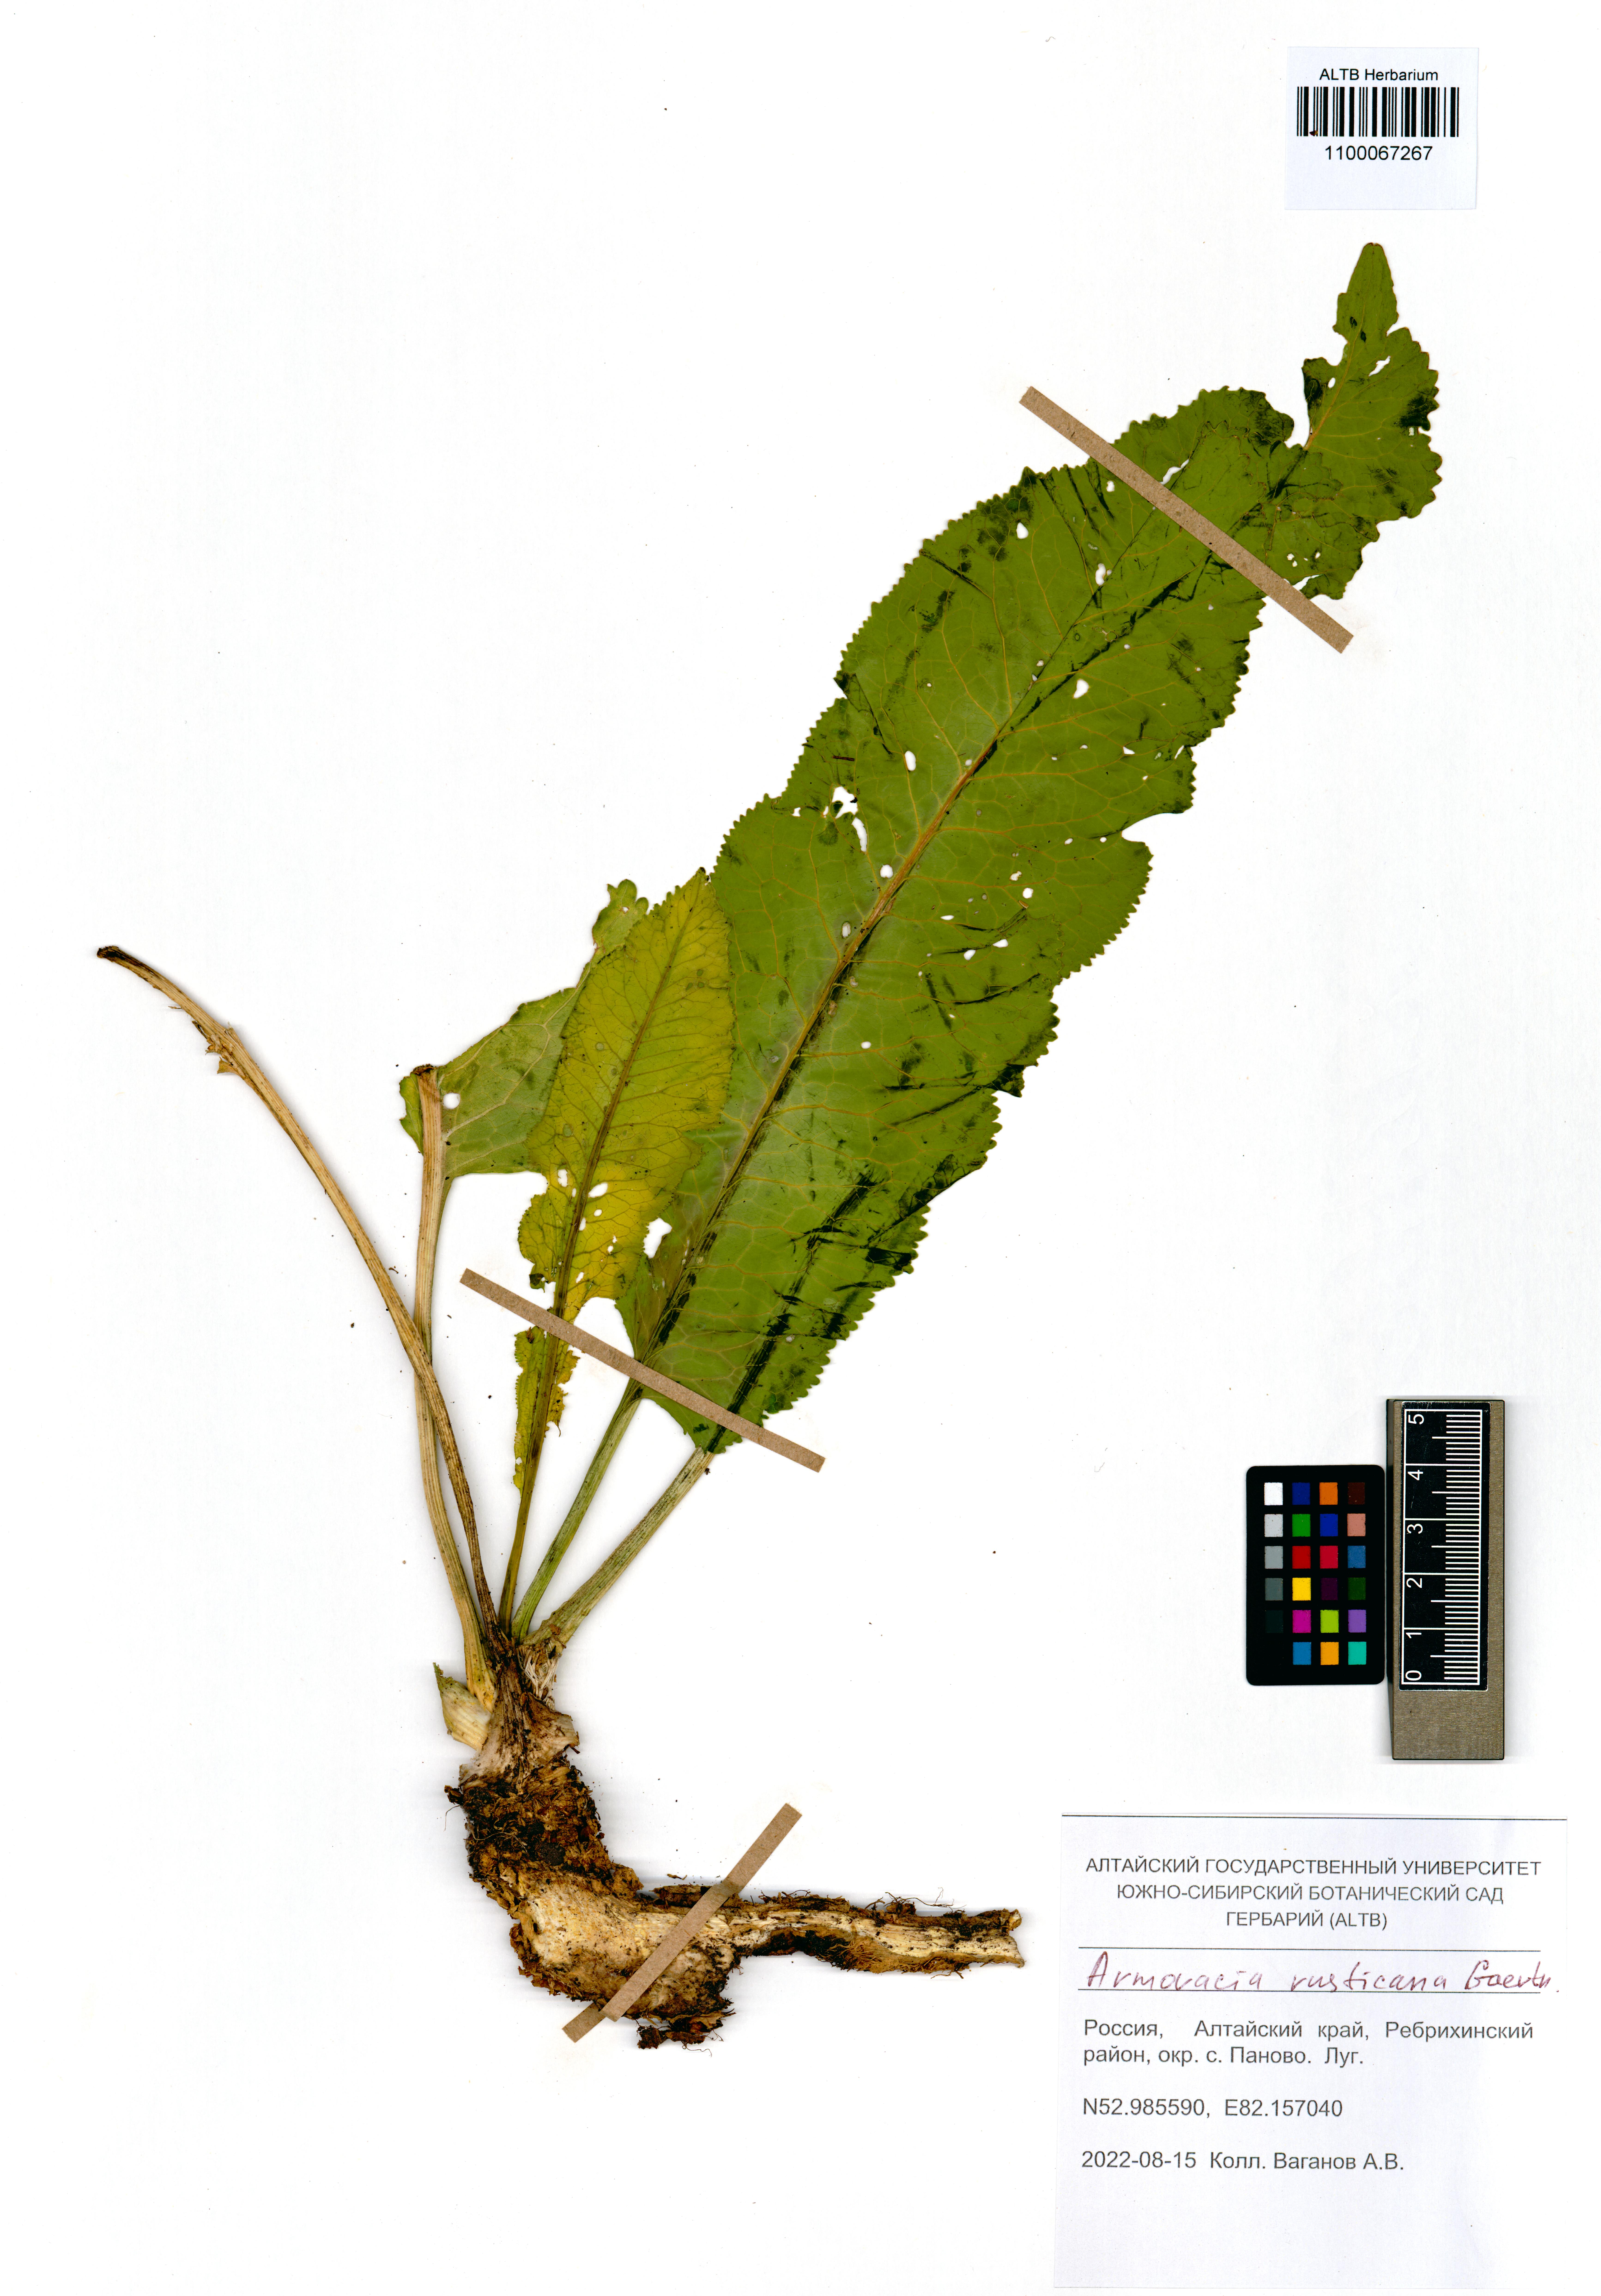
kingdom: Plantae
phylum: Tracheophyta
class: Magnoliopsida
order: Brassicales
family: Brassicaceae
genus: Armoracia
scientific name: Armoracia rusticana
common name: Horseradish
